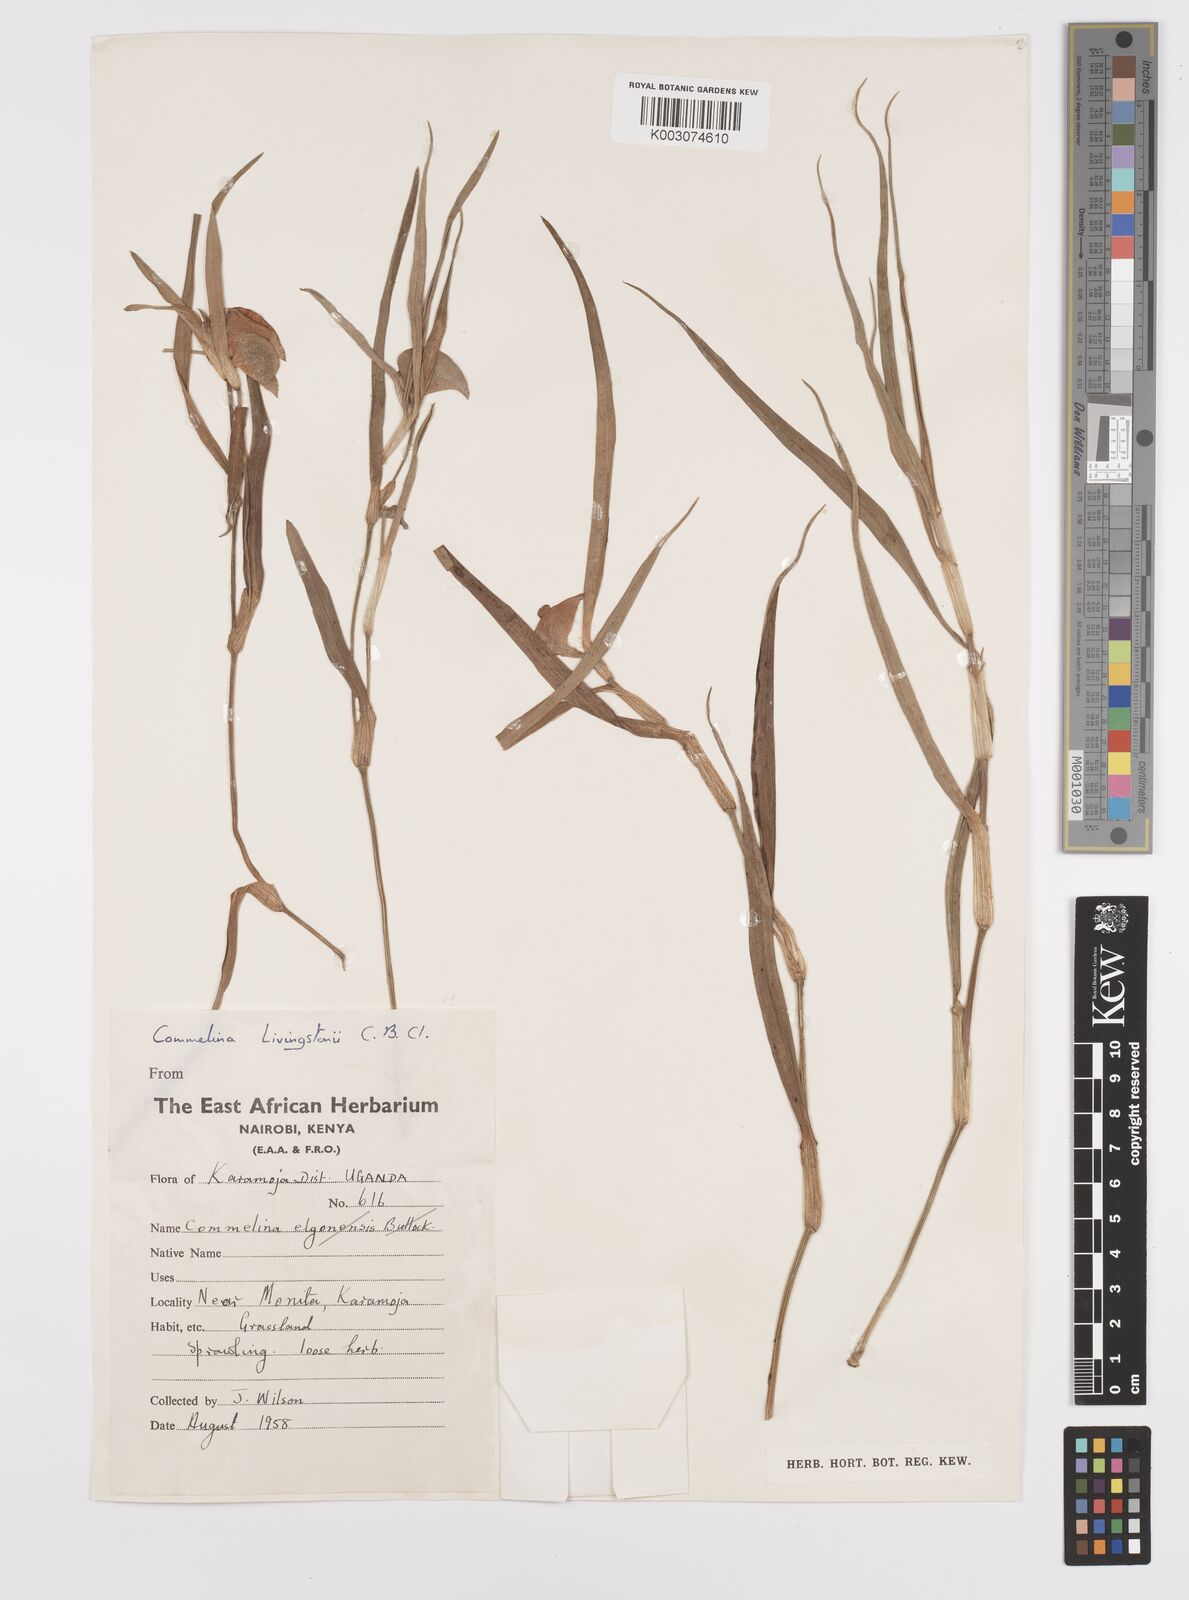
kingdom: Plantae
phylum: Tracheophyta
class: Liliopsida
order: Commelinales
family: Commelinaceae
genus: Commelina
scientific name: Commelina erecta
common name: Blousel blommetjie
